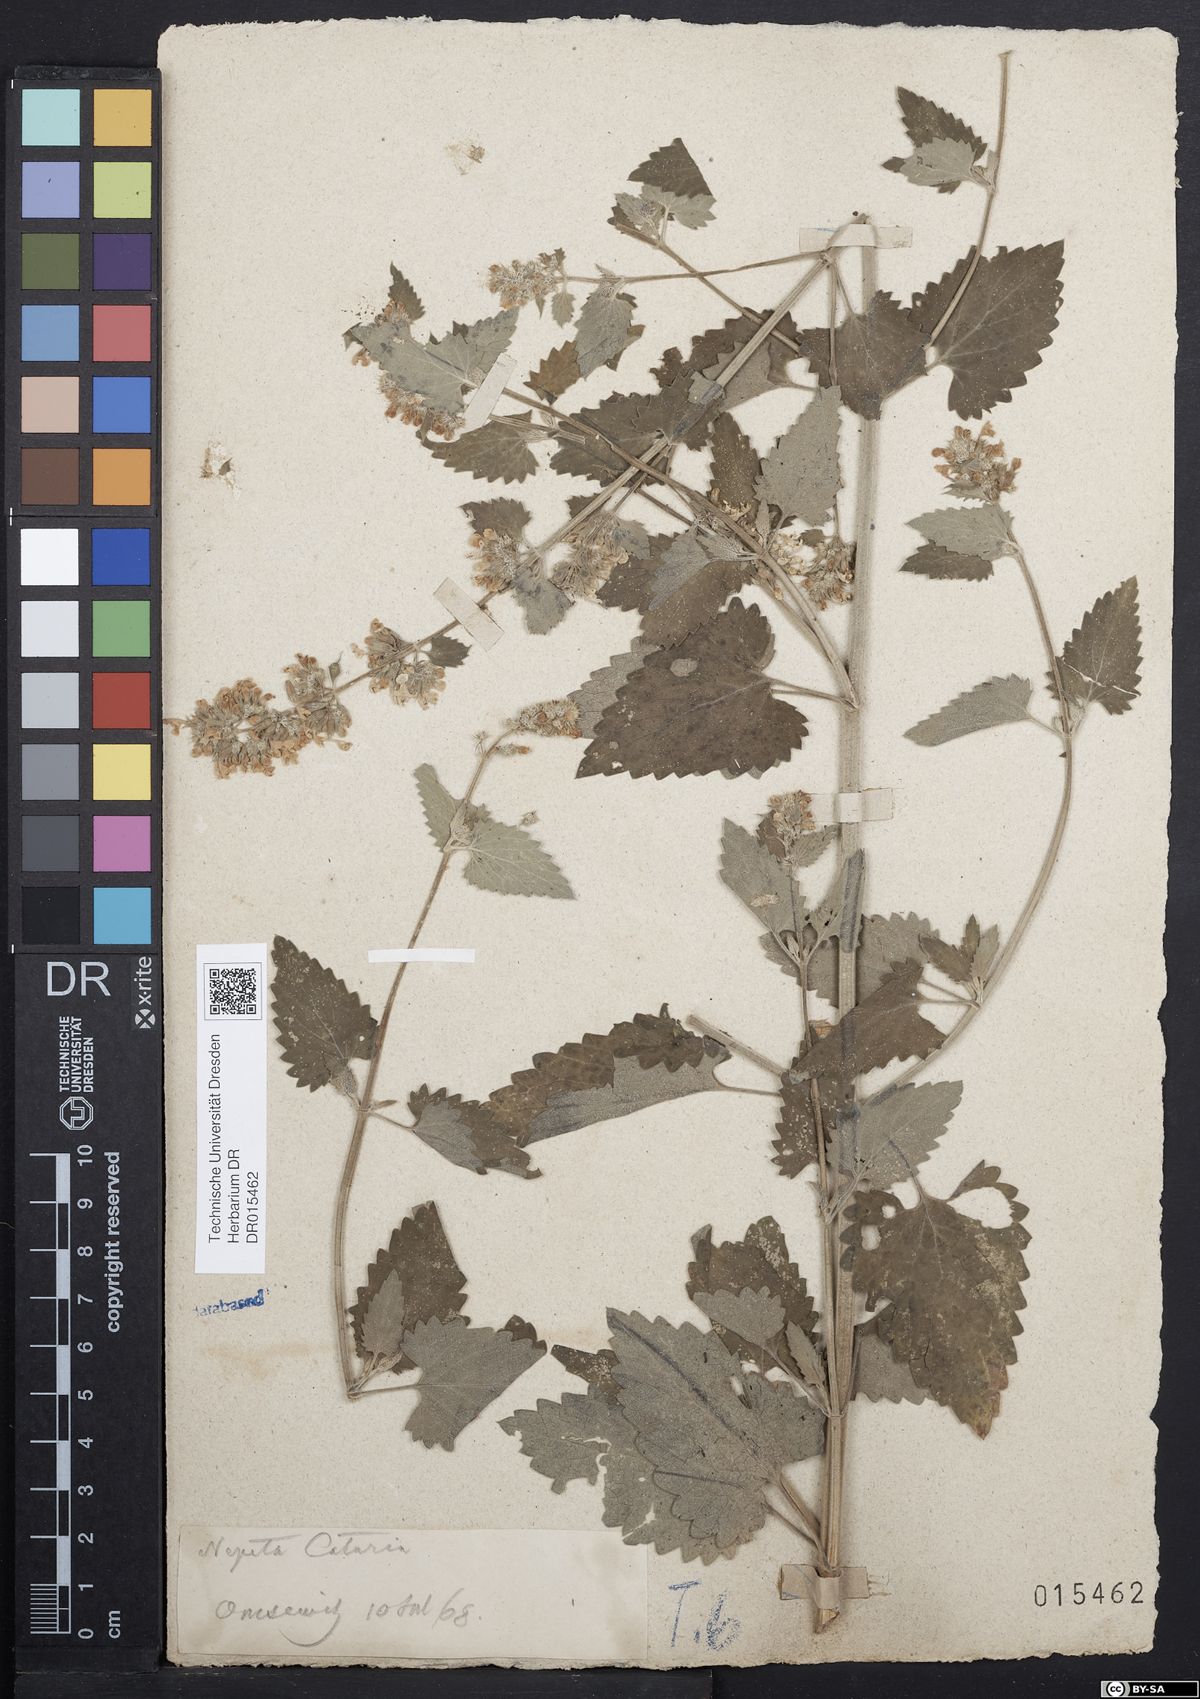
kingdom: Plantae
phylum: Tracheophyta
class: Magnoliopsida
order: Lamiales
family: Lamiaceae
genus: Nepeta
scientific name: Nepeta cataria
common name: Catnip
